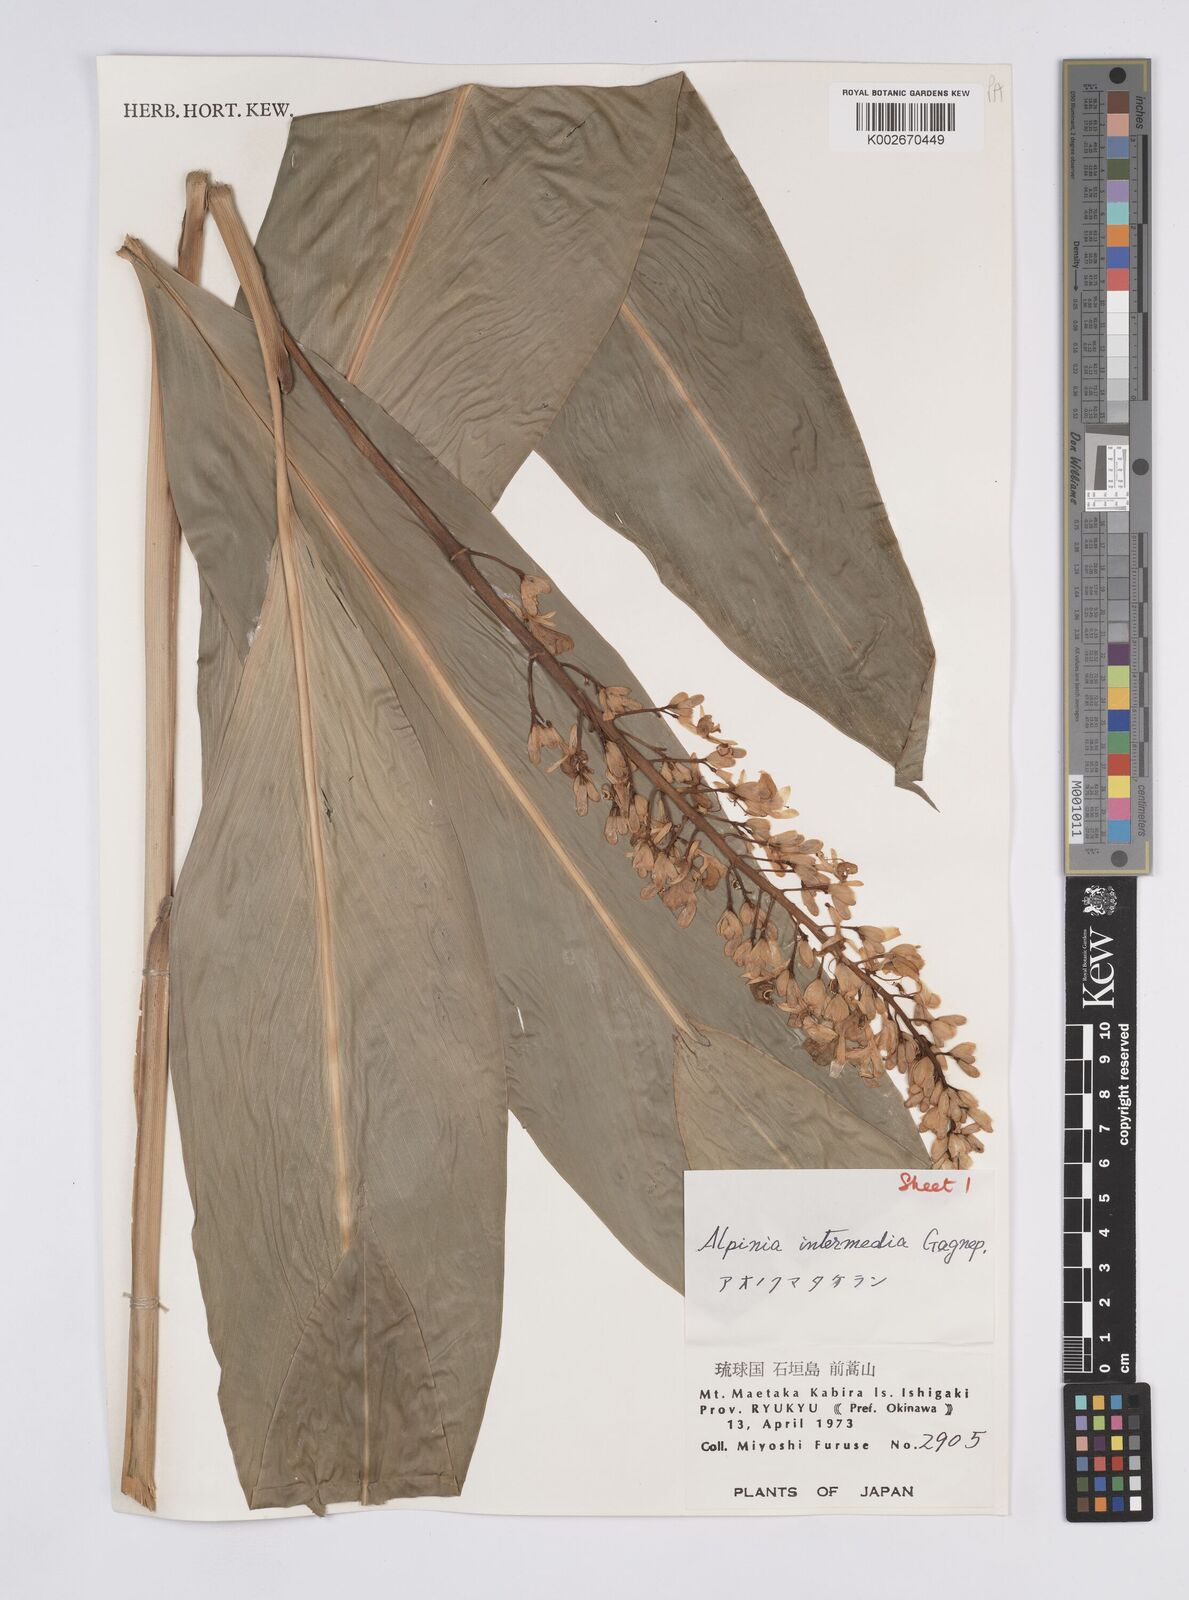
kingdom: Plantae
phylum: Tracheophyta
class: Liliopsida
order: Zingiberales
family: Zingiberaceae
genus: Alpinia
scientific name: Alpinia intermedia
